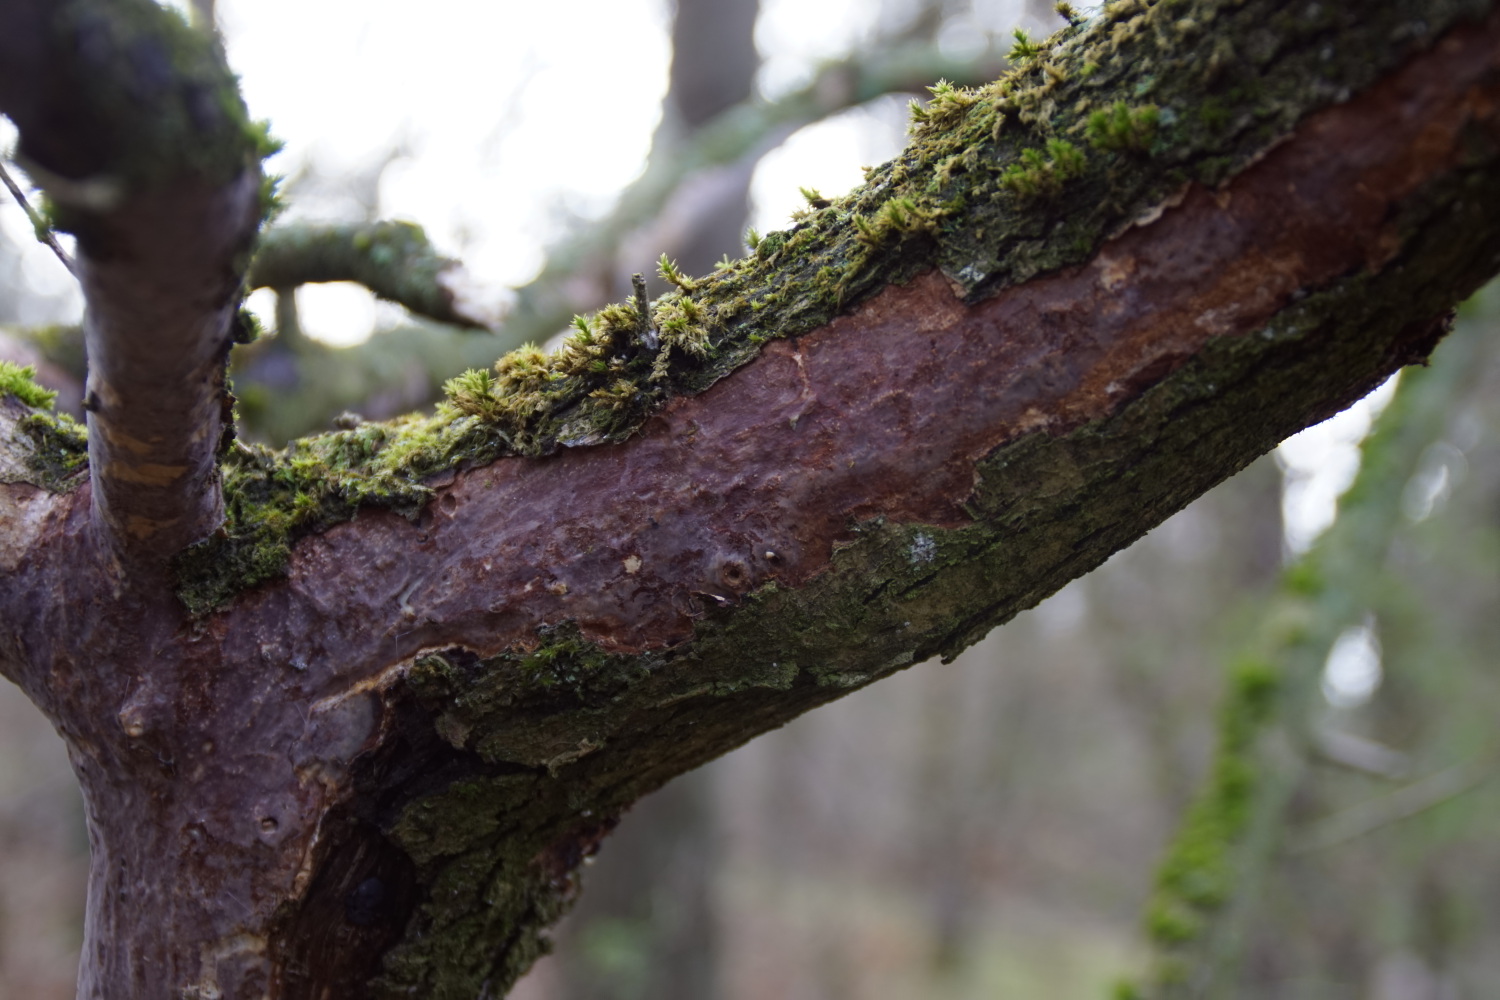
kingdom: Fungi
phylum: Basidiomycota
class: Agaricomycetes
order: Corticiales
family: Vuilleminiaceae
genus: Vuilleminia
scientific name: Vuilleminia comedens
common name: almindelig barksprænger
